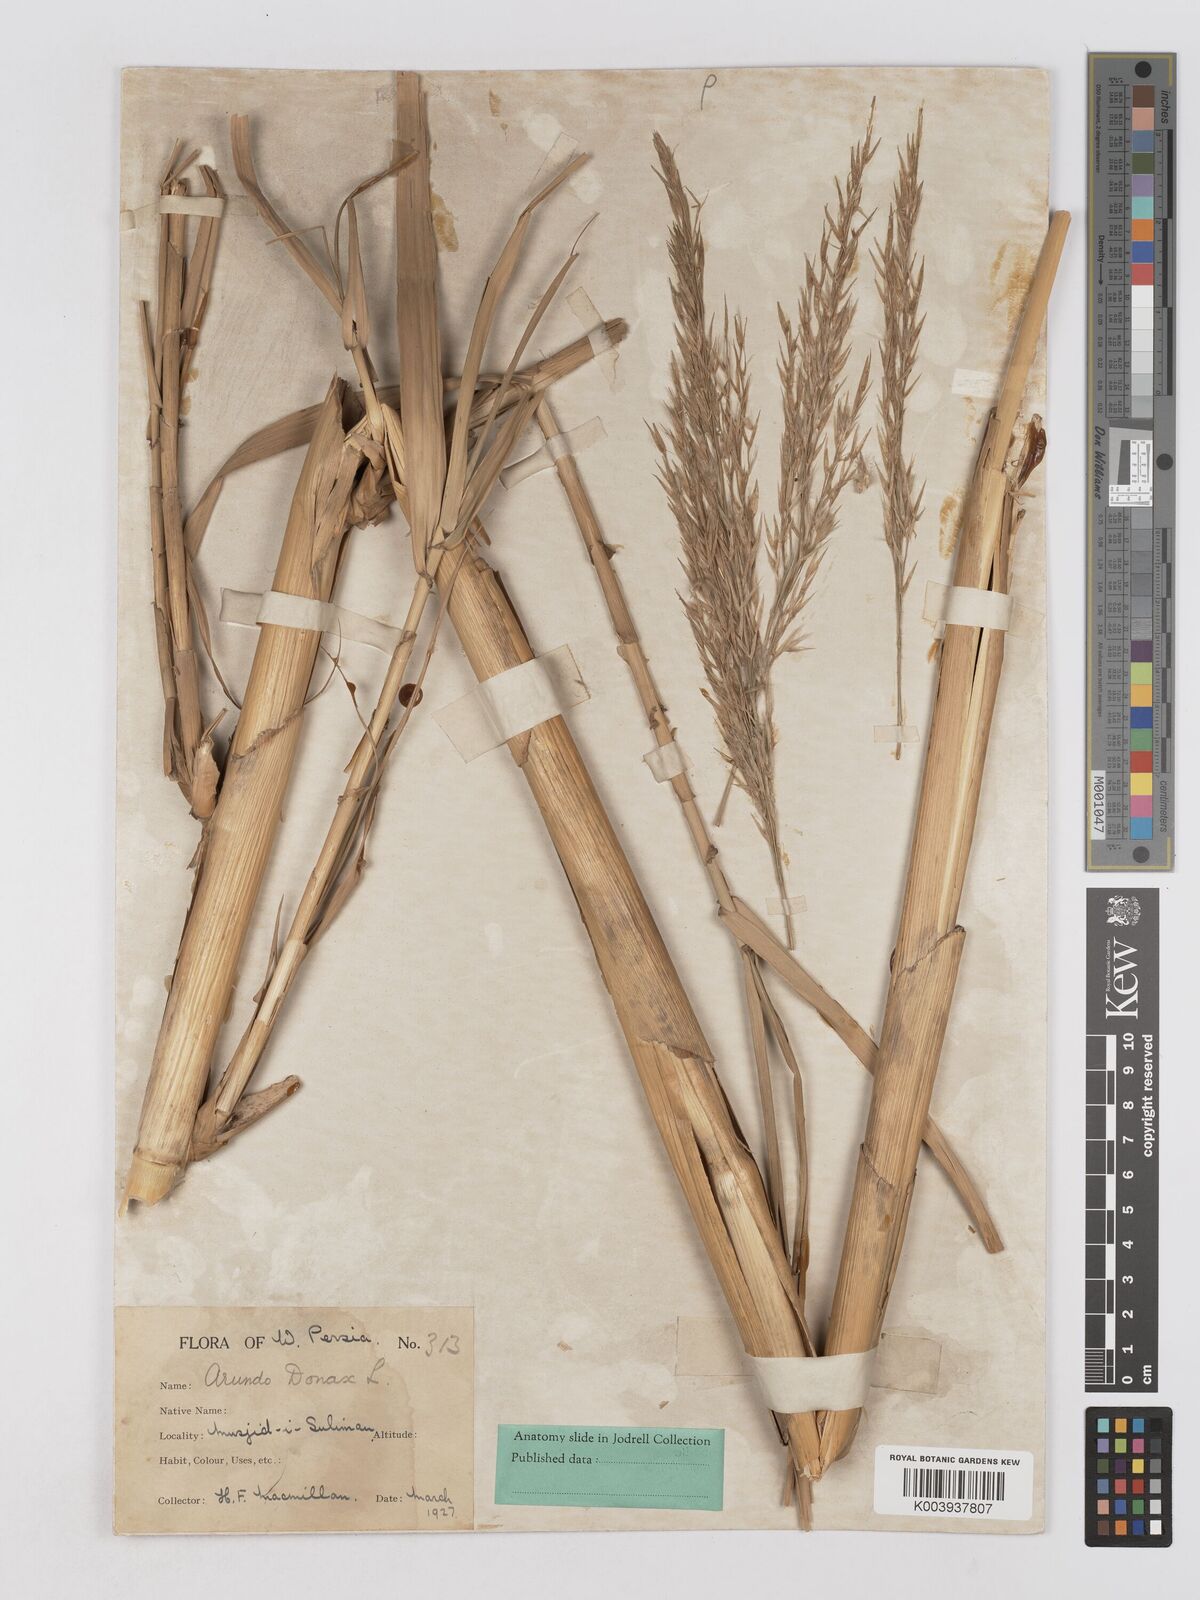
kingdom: Plantae
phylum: Tracheophyta
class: Liliopsida
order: Poales
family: Poaceae
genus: Arundo
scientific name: Arundo donax
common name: Giant reed
